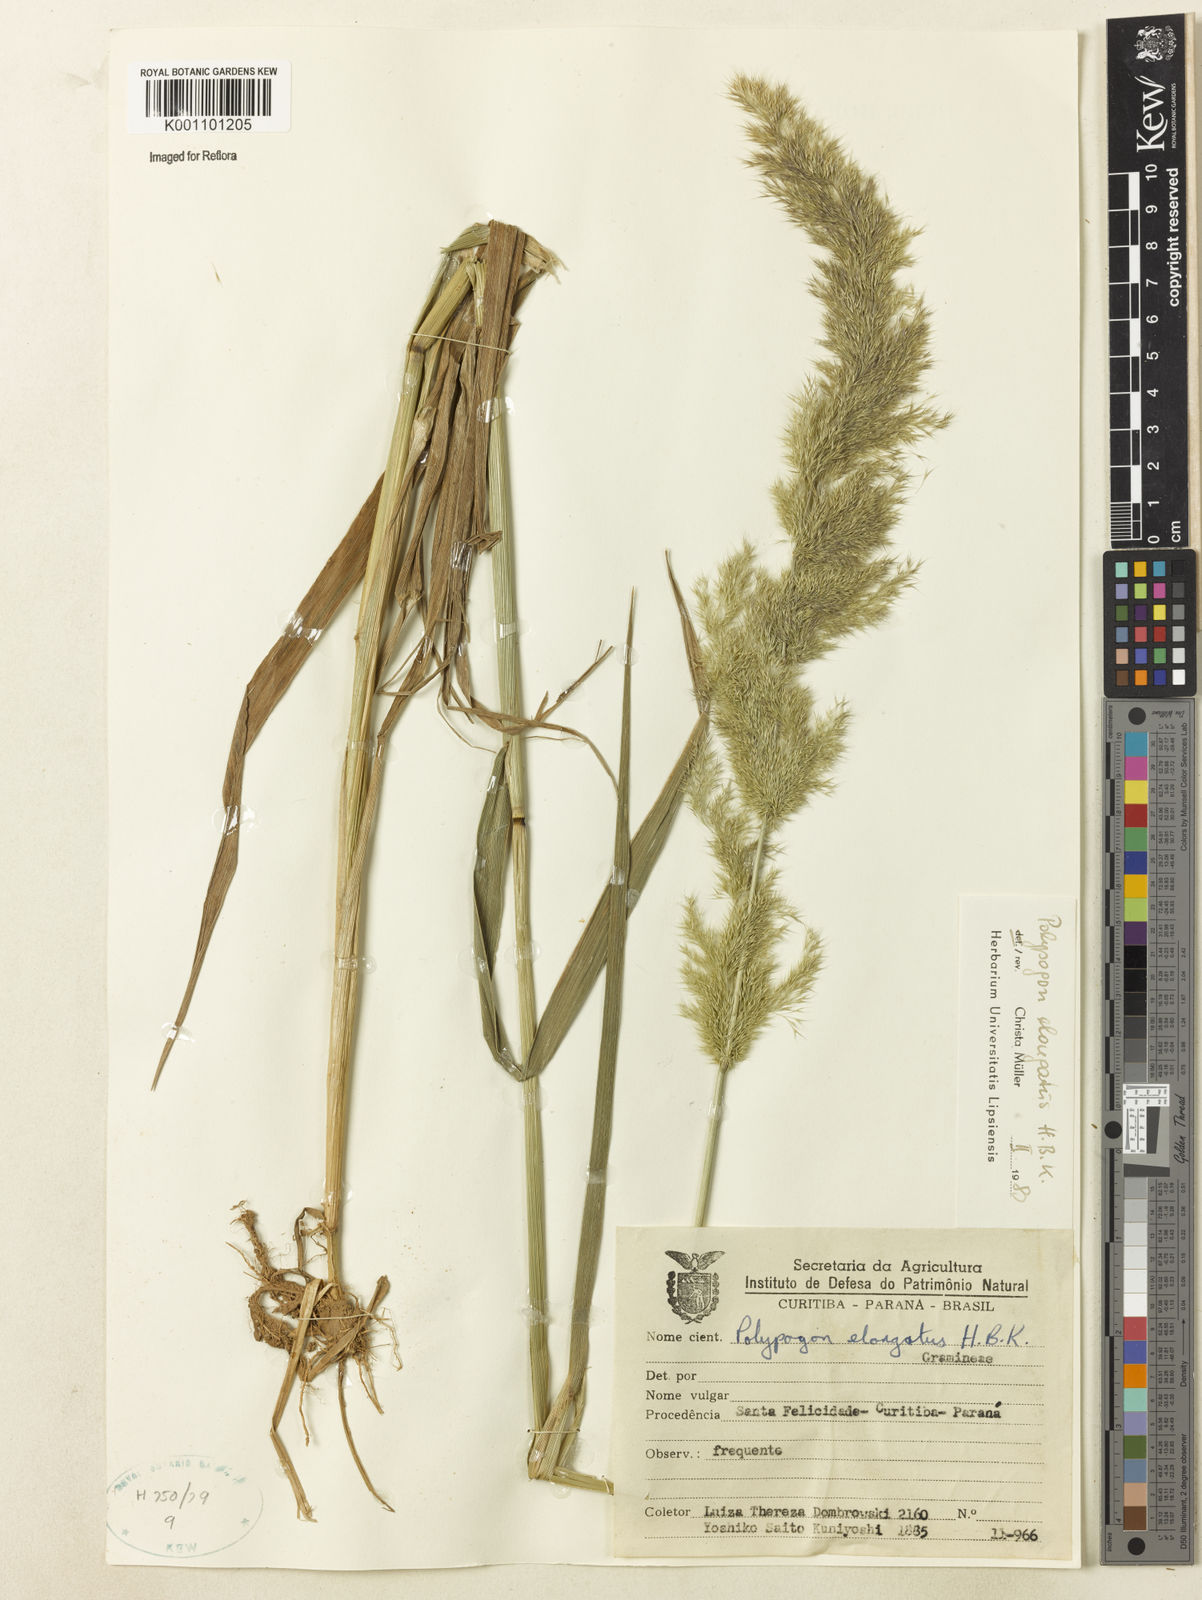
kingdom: Plantae
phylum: Tracheophyta
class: Liliopsida
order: Poales
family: Poaceae
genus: Polypogon
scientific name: Polypogon elongatus
